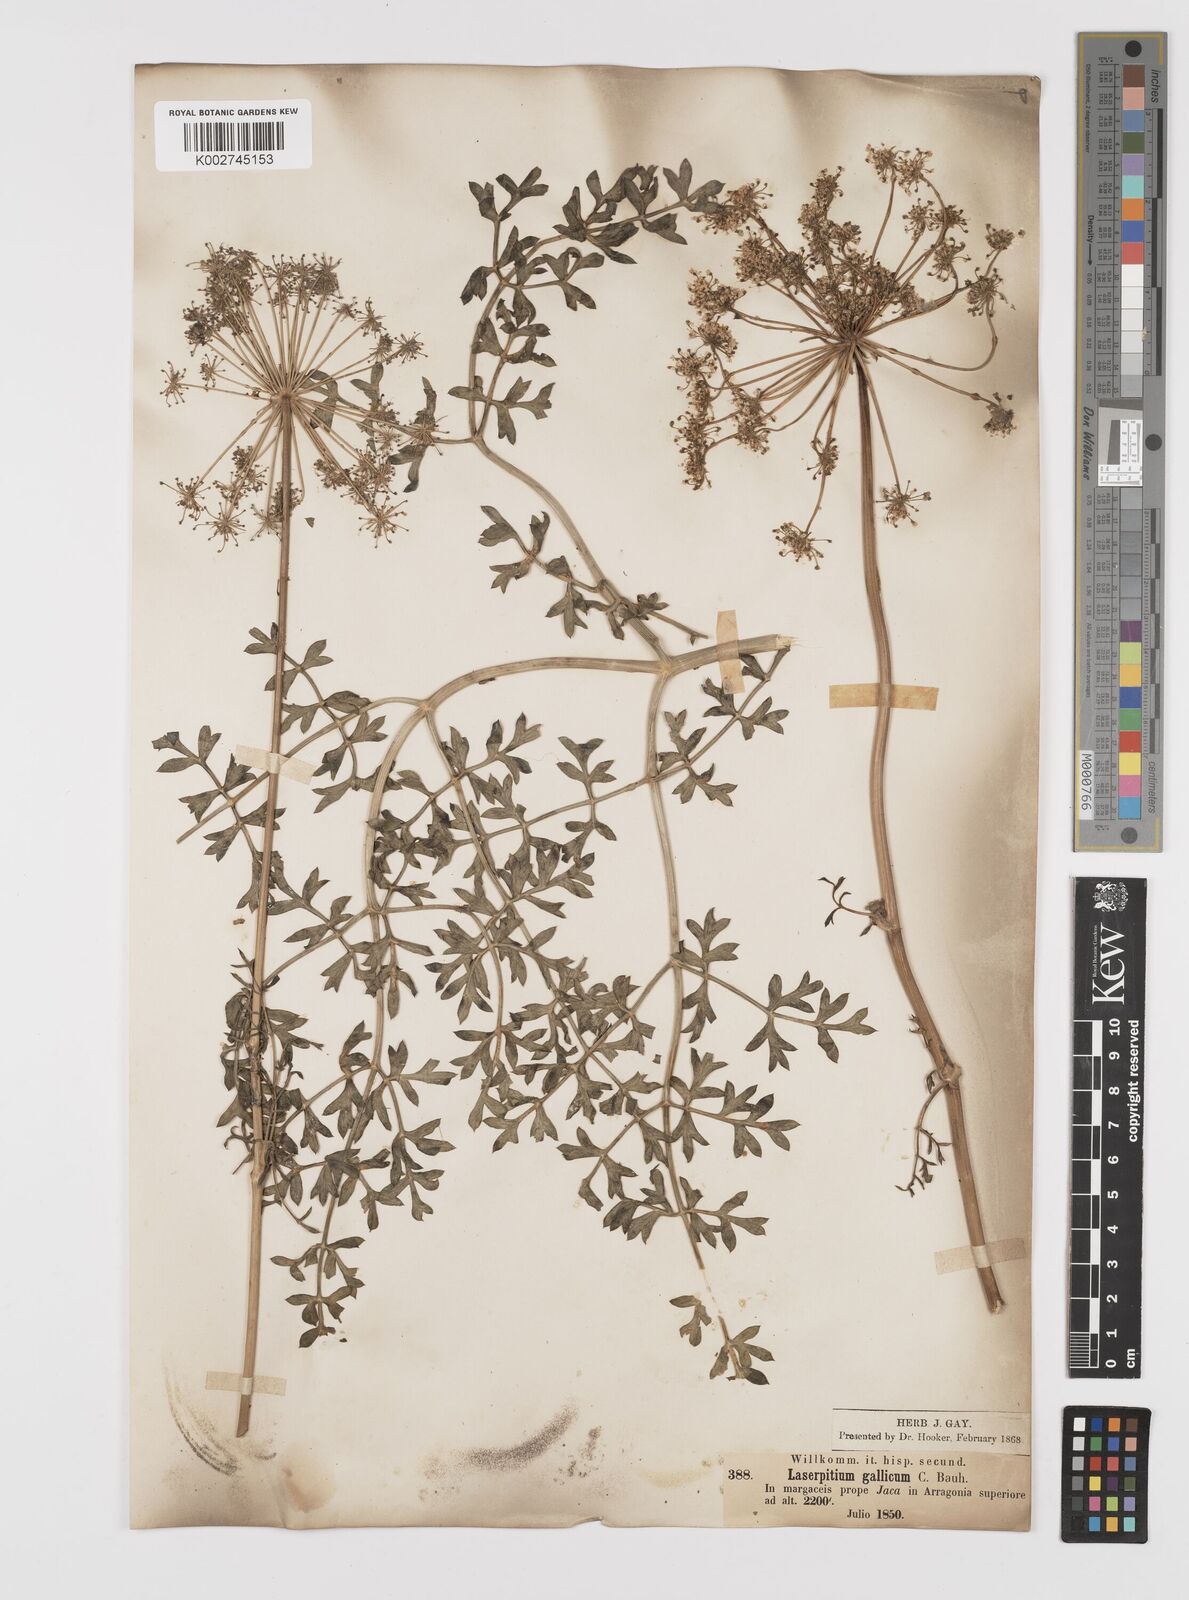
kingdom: Plantae
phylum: Tracheophyta
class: Magnoliopsida
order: Apiales
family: Apiaceae
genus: Laserpitium
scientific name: Laserpitium gallicum
